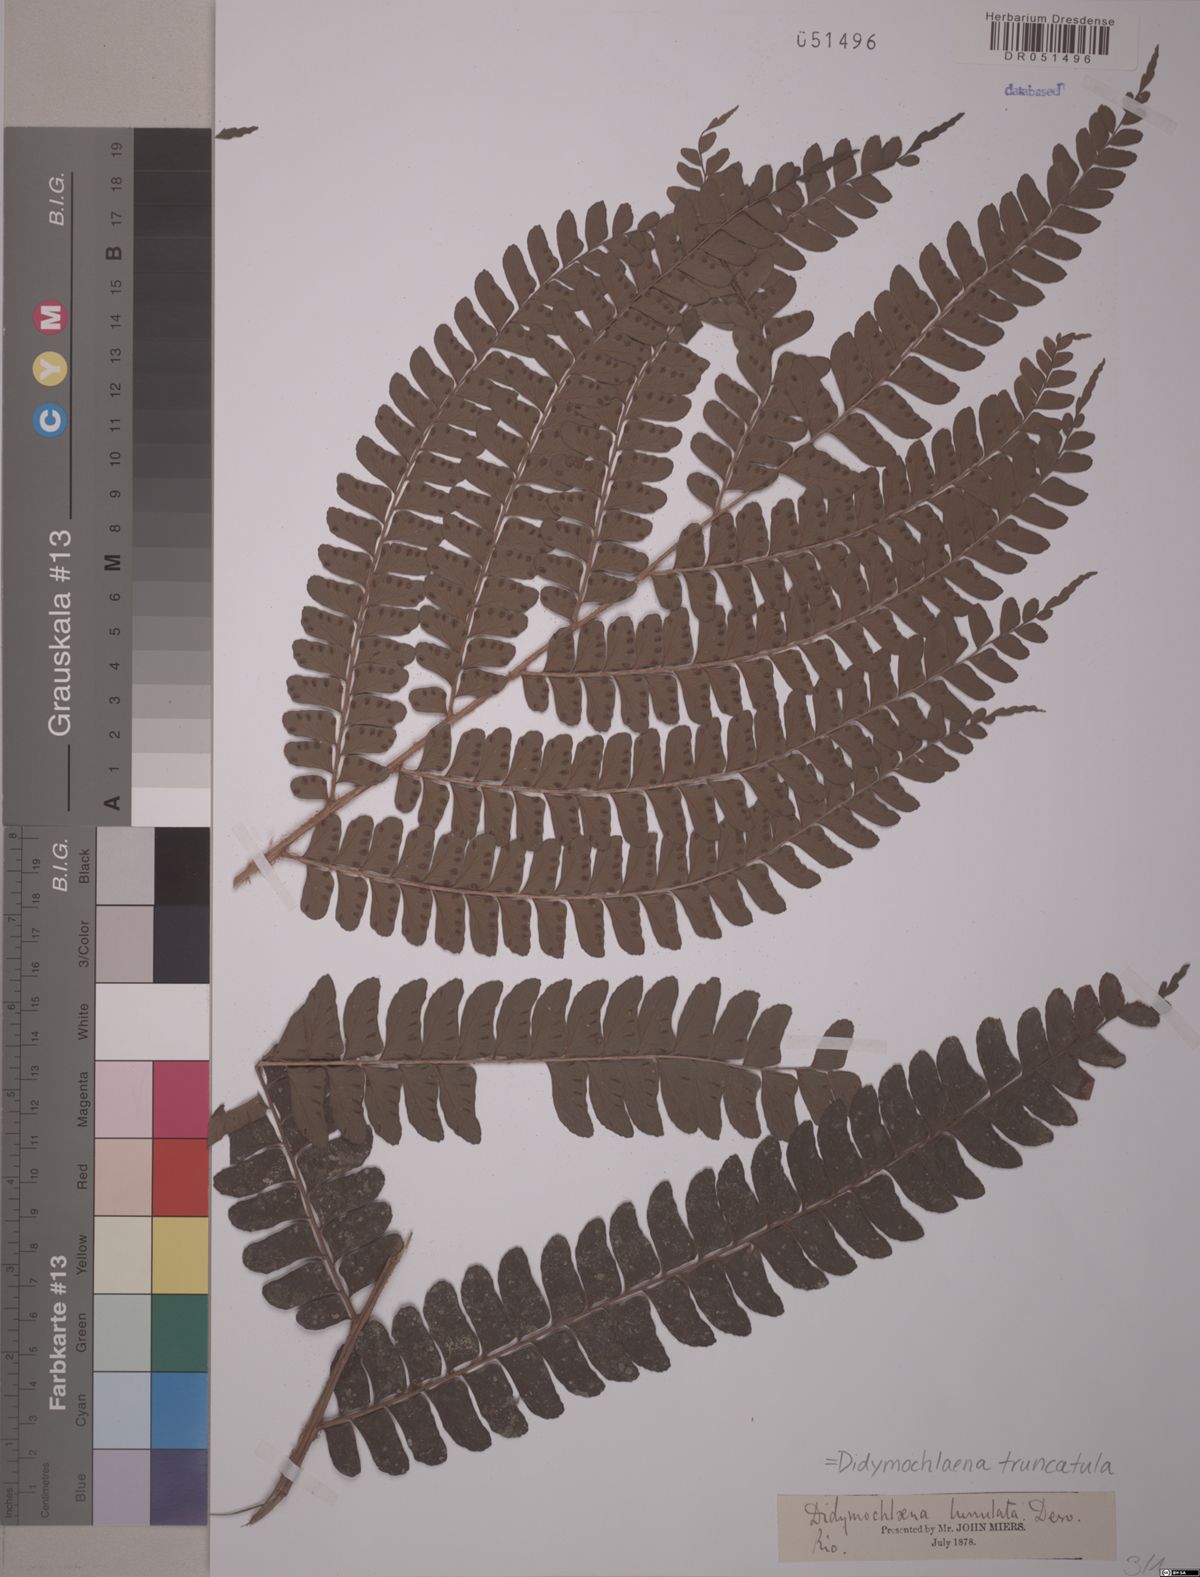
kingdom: Plantae
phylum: Tracheophyta
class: Polypodiopsida
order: Polypodiales
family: Didymochlaenaceae
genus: Didymochlaena
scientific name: Didymochlaena truncatula
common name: Mahogany fern
